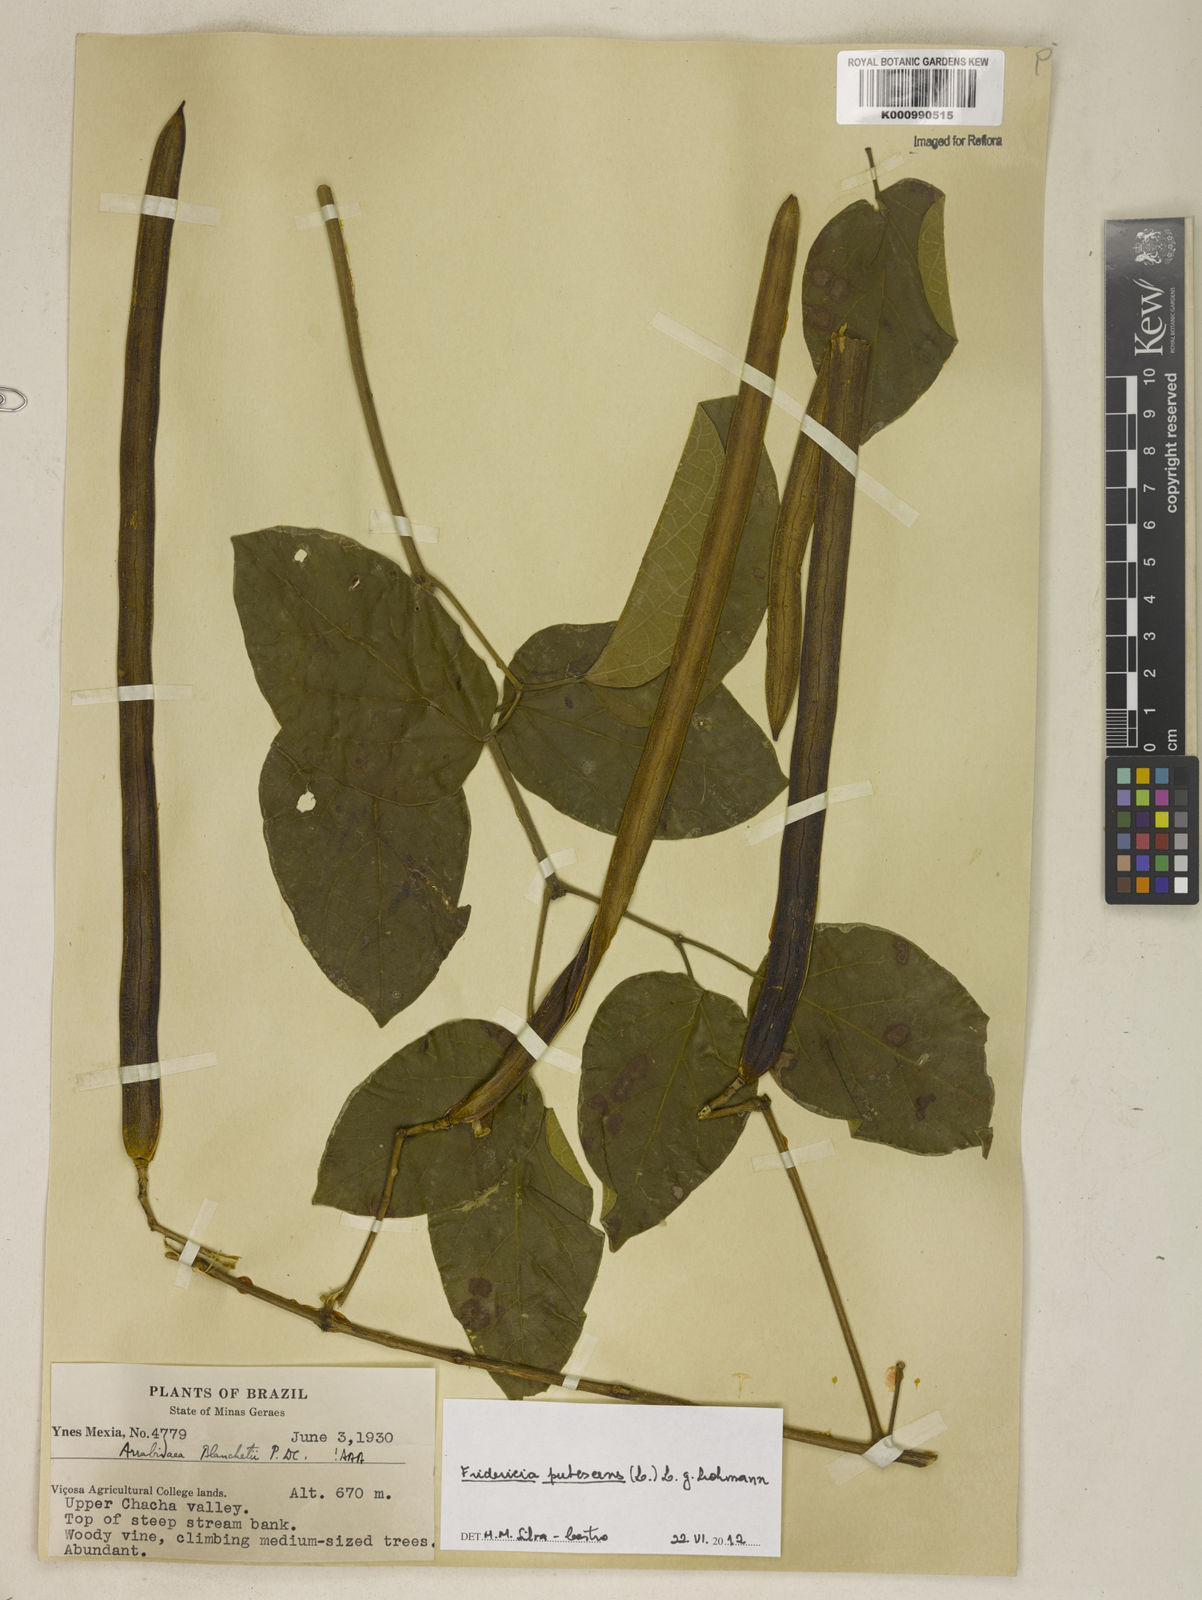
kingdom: Plantae
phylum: Tracheophyta
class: Magnoliopsida
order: Lamiales
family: Bignoniaceae
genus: Fridericia
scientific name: Fridericia pubescens
